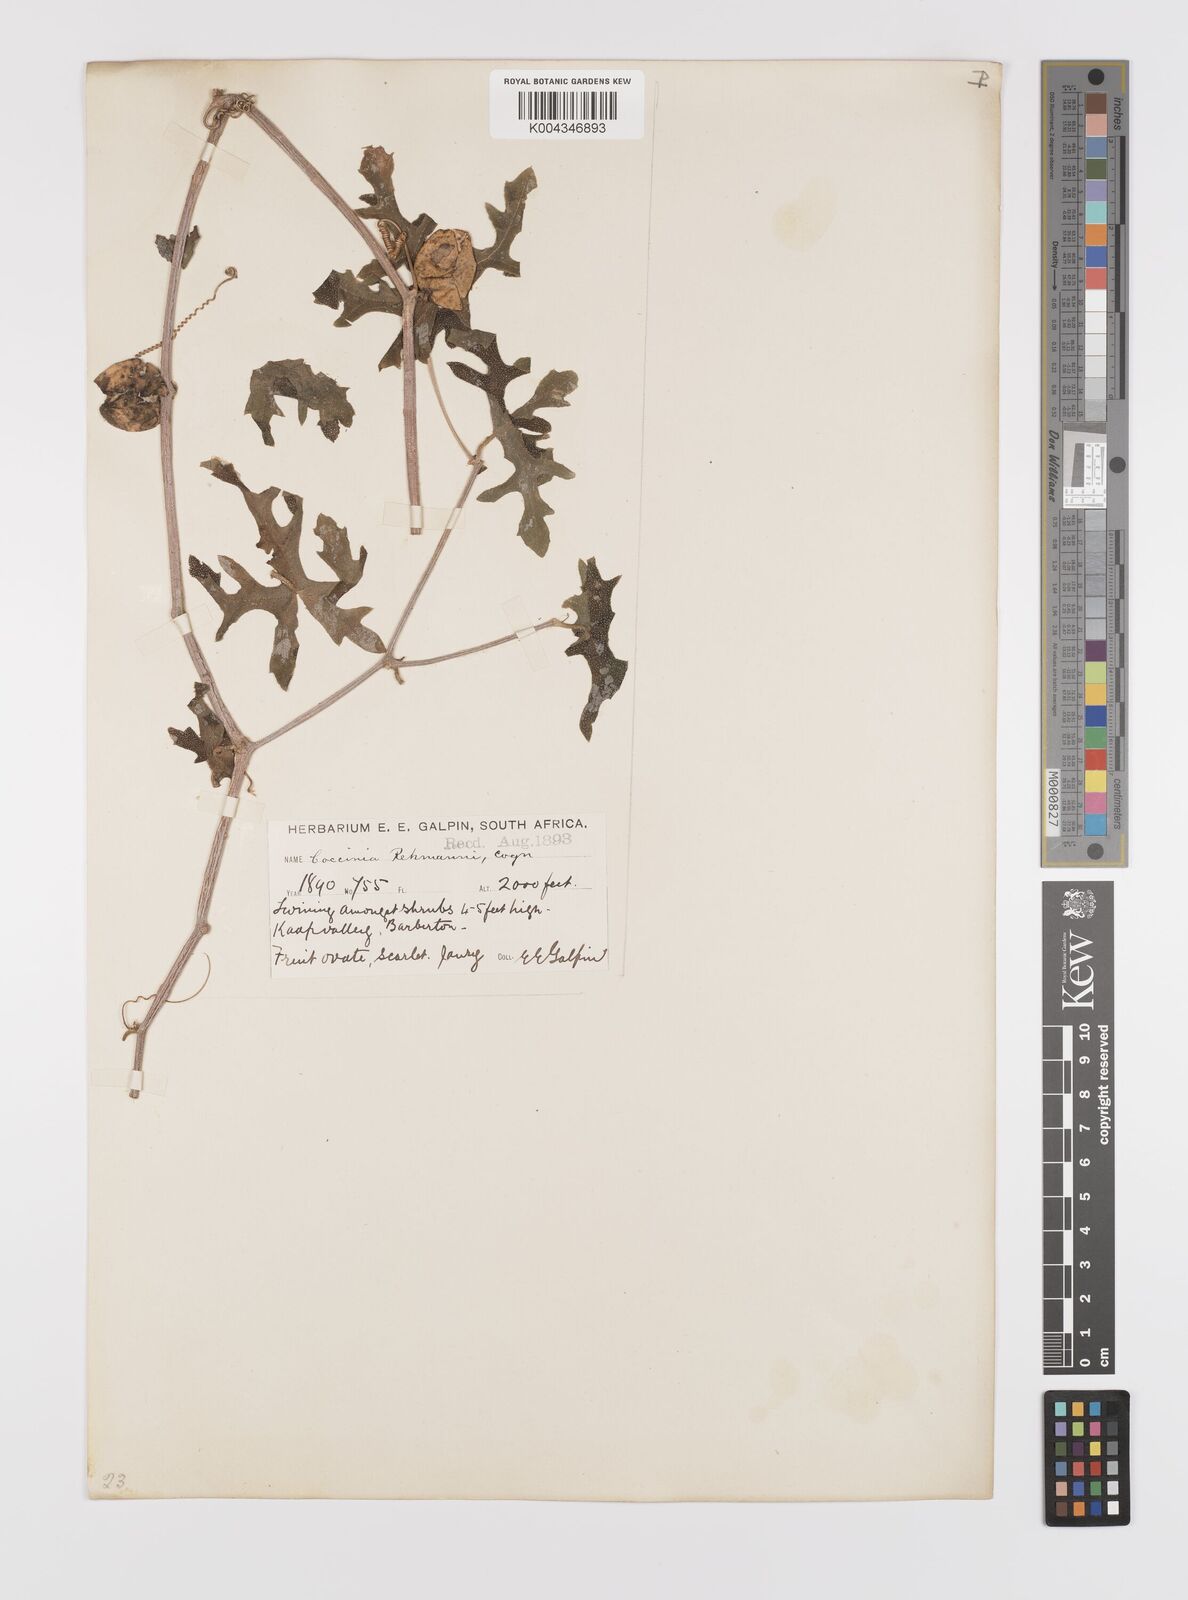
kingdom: Plantae
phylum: Tracheophyta
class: Magnoliopsida
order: Cucurbitales
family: Cucurbitaceae
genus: Coccinia
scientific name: Coccinia rehmannii
